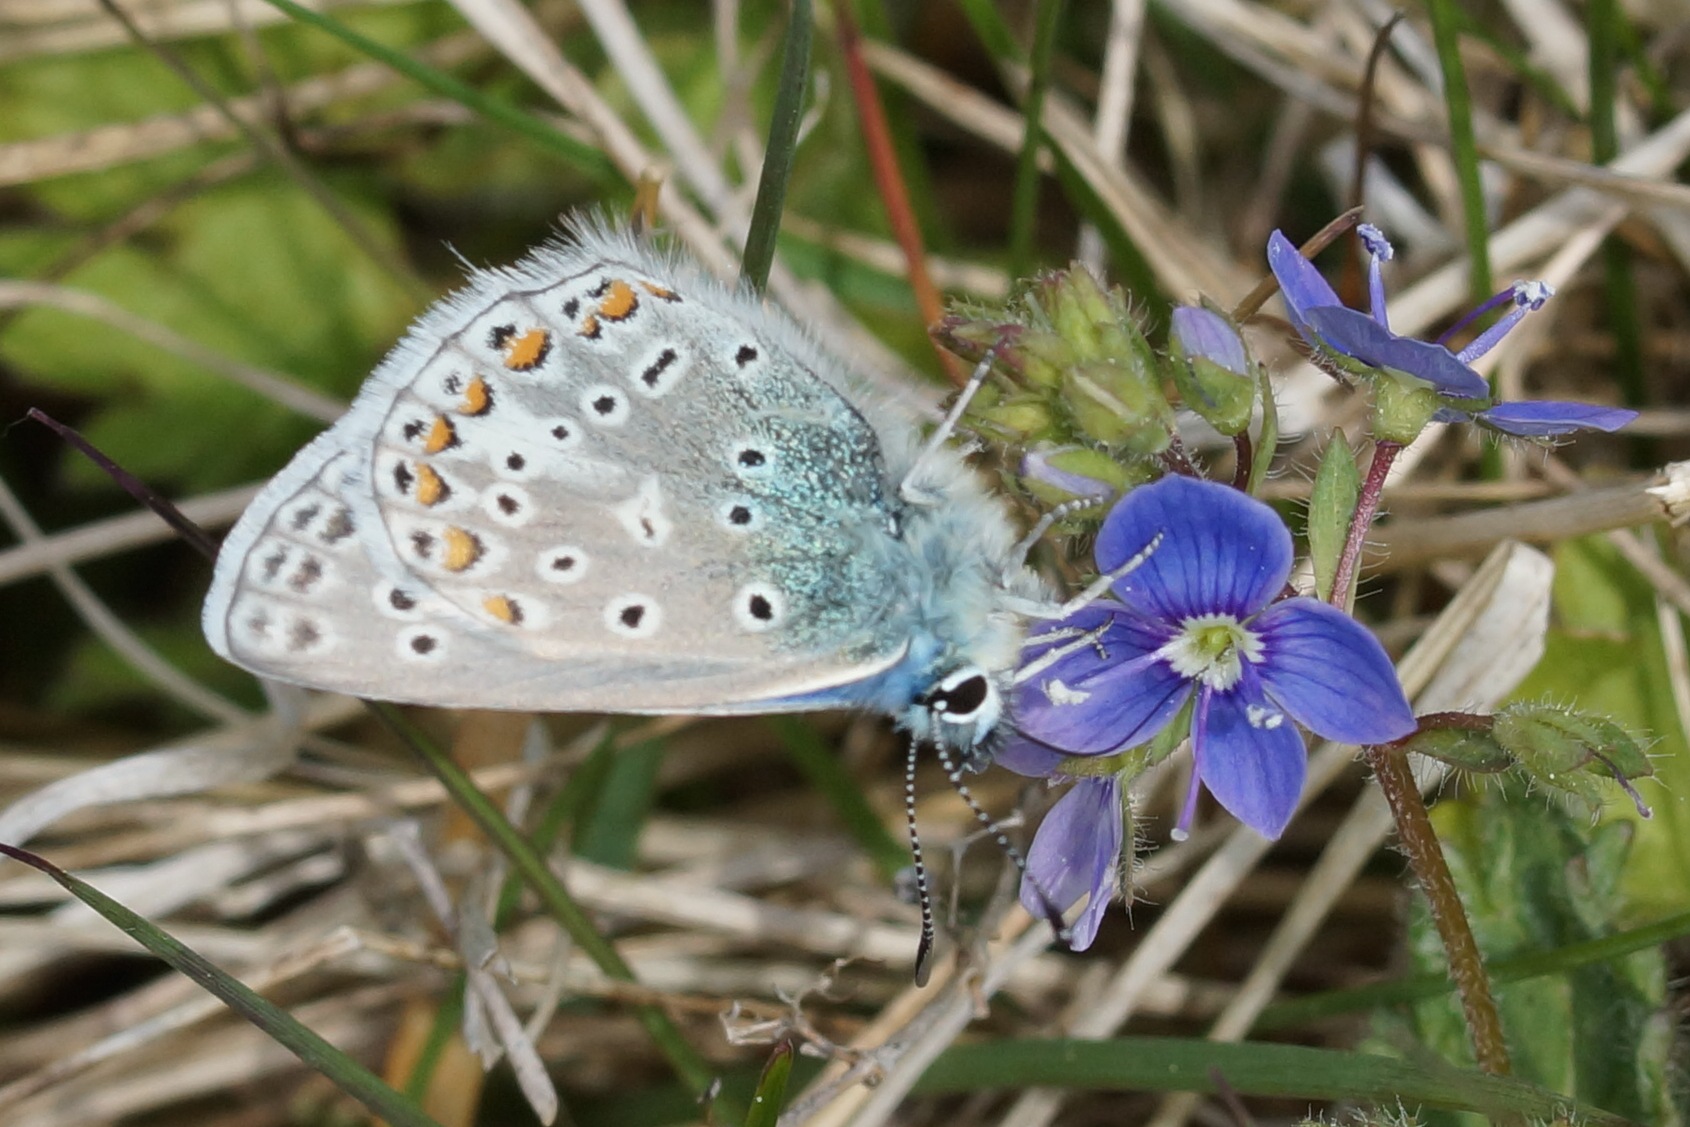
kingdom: Animalia
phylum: Arthropoda
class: Insecta
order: Lepidoptera
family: Lycaenidae
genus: Polyommatus
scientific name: Polyommatus icarus
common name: Almindelig blåfugl
